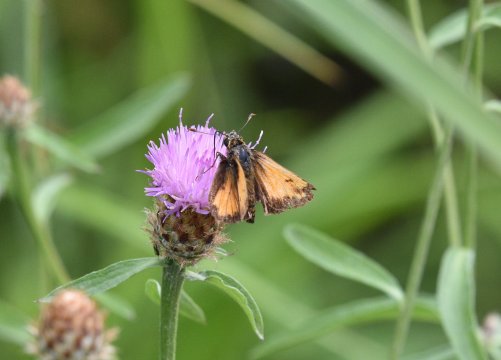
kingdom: Animalia
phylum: Arthropoda
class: Insecta
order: Lepidoptera
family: Hesperiidae
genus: Lon
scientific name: Lon hobomok
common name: Hobomok Skipper
